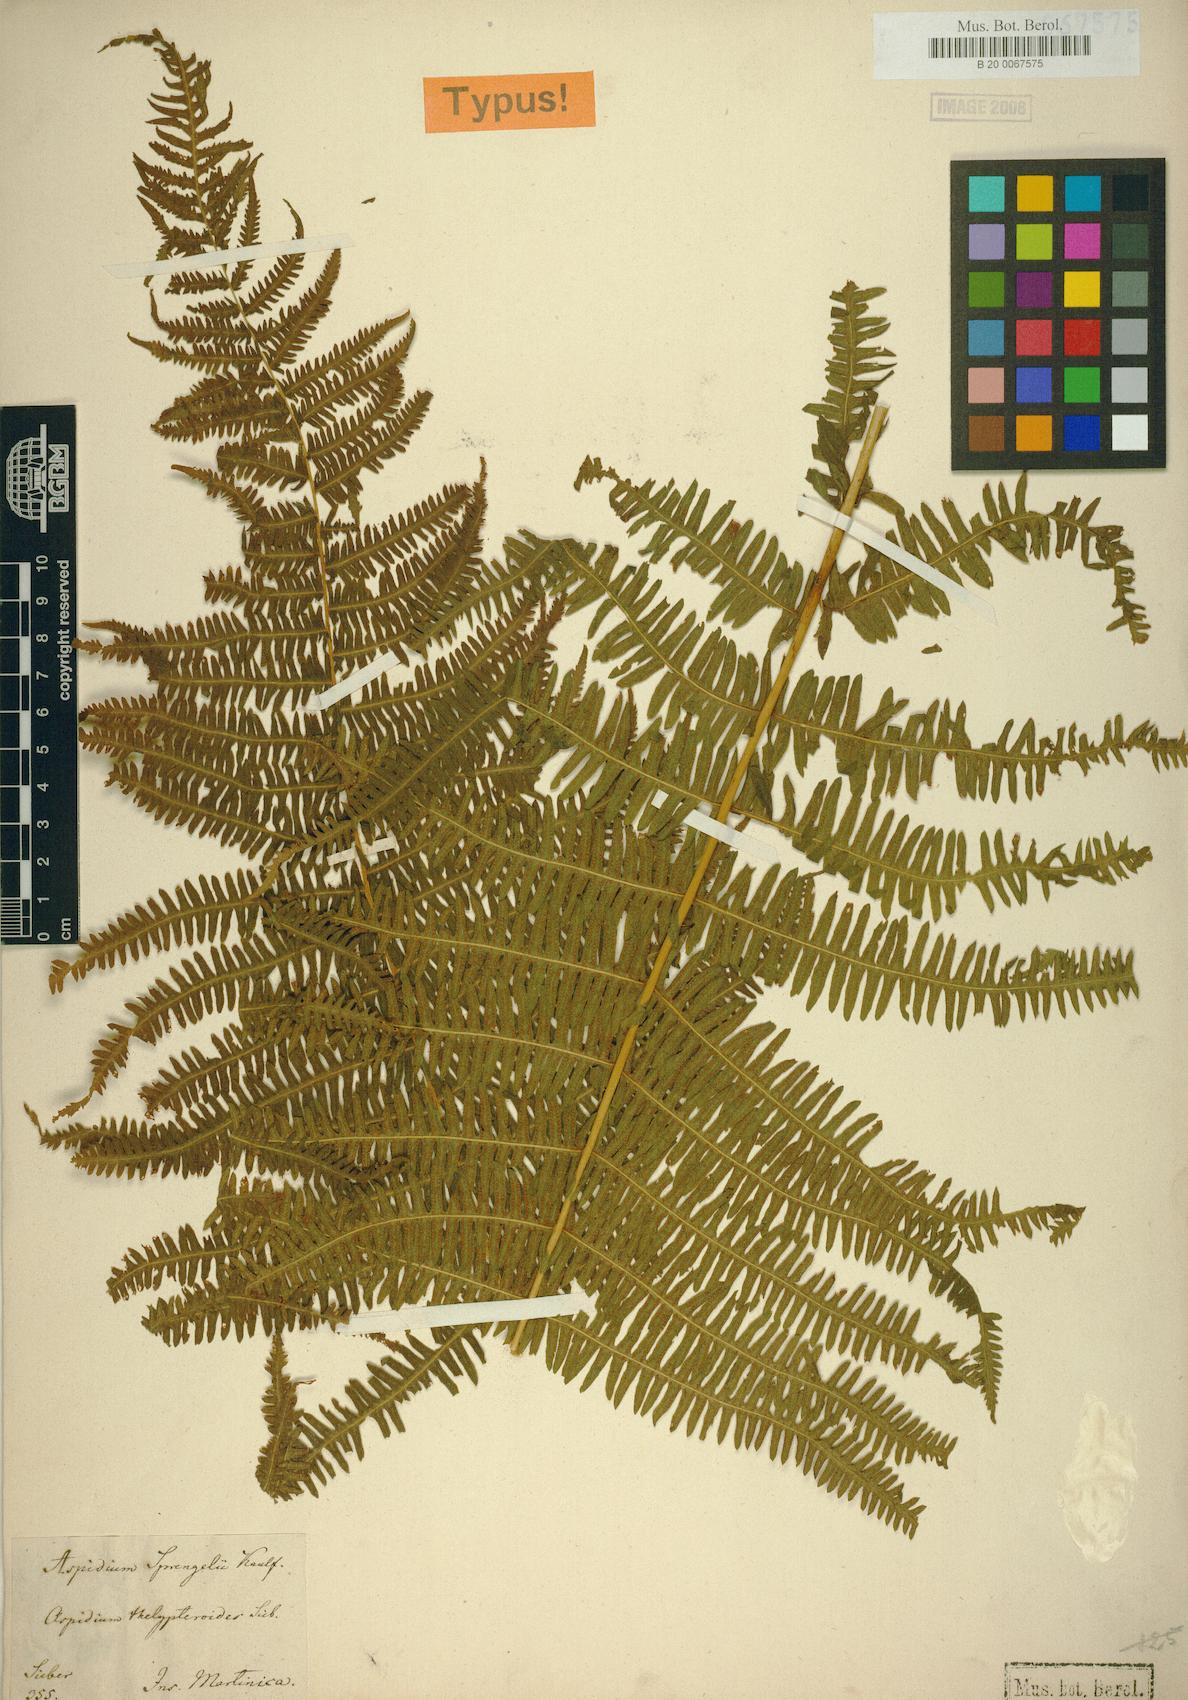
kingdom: Plantae
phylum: Tracheophyta
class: Polypodiopsida
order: Polypodiales
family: Thelypteridaceae
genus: Amauropelta
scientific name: Amauropelta balbisii
